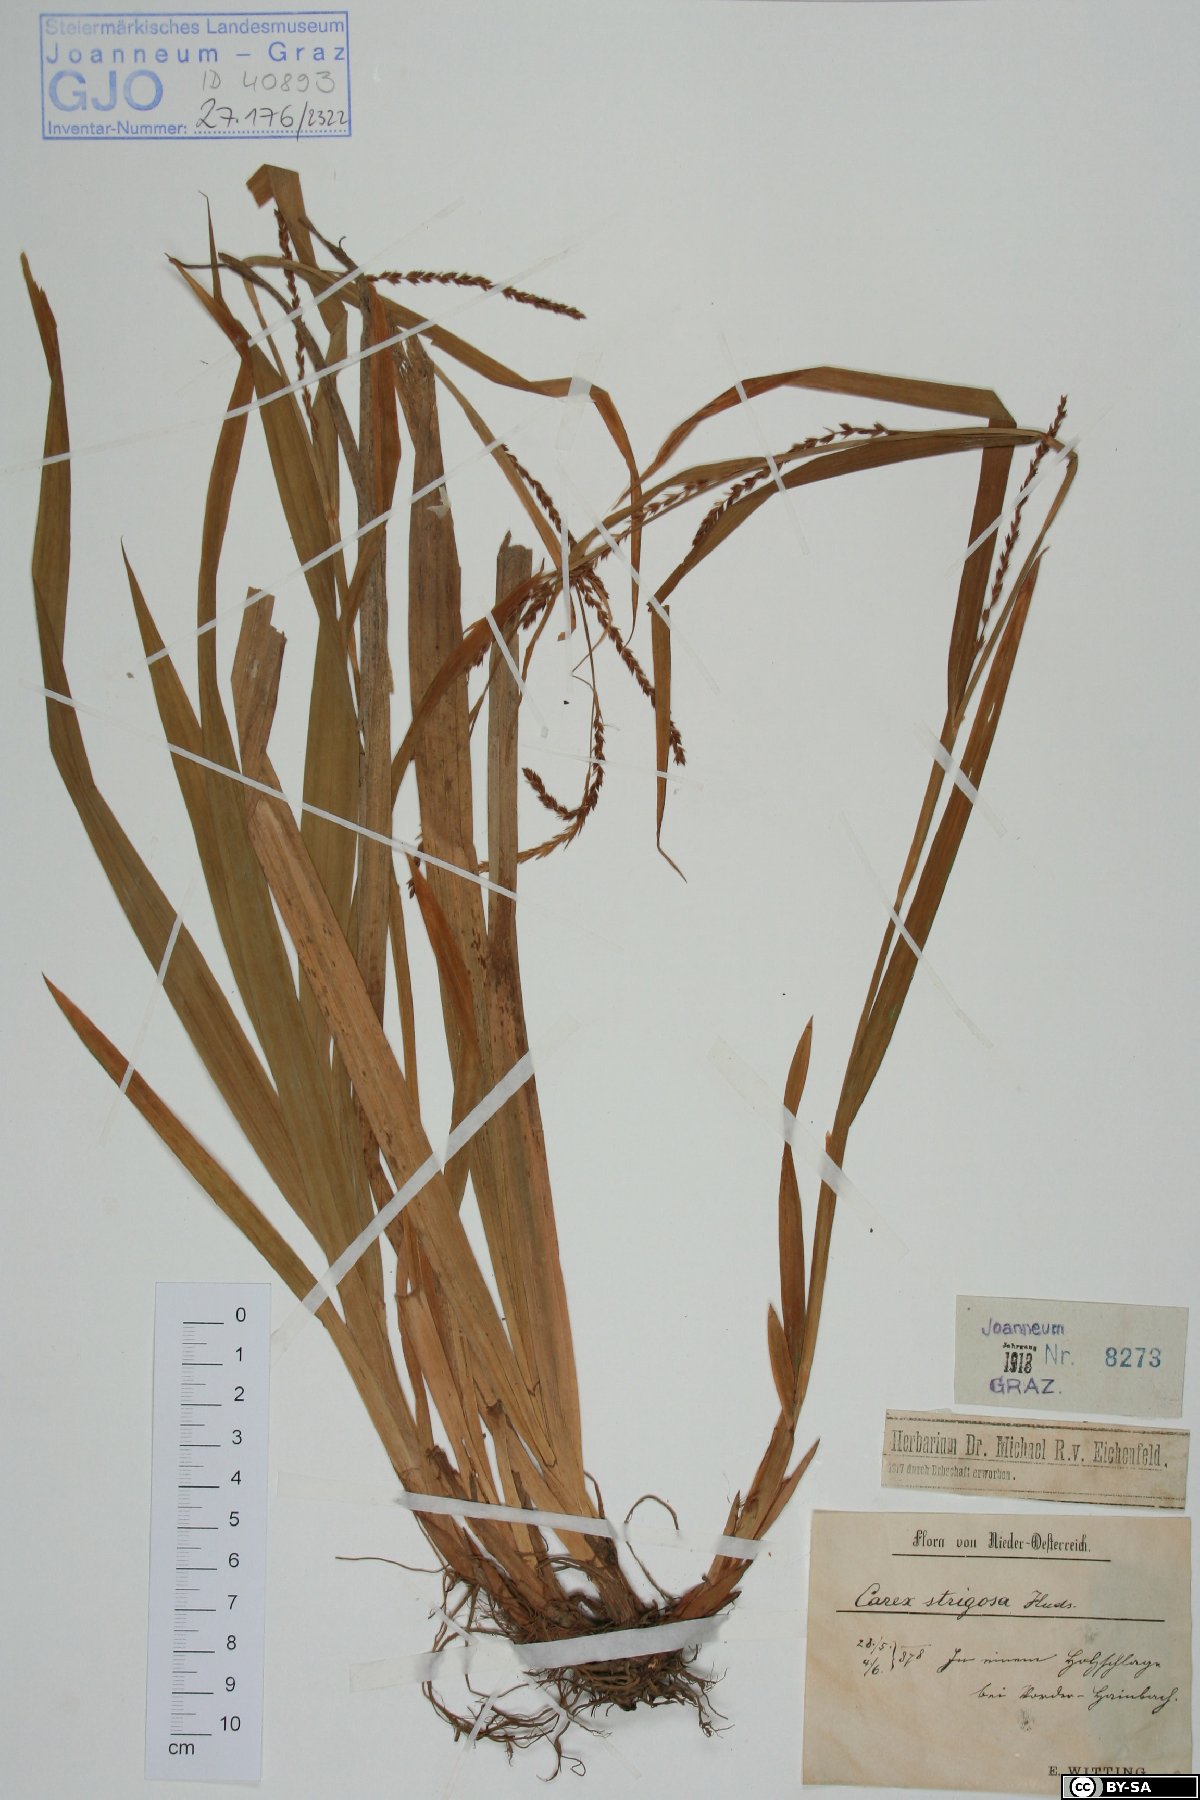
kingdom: Plantae
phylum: Tracheophyta
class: Liliopsida
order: Poales
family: Cyperaceae
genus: Carex
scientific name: Carex strigosa
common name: Thin-spiked wood-sedge
